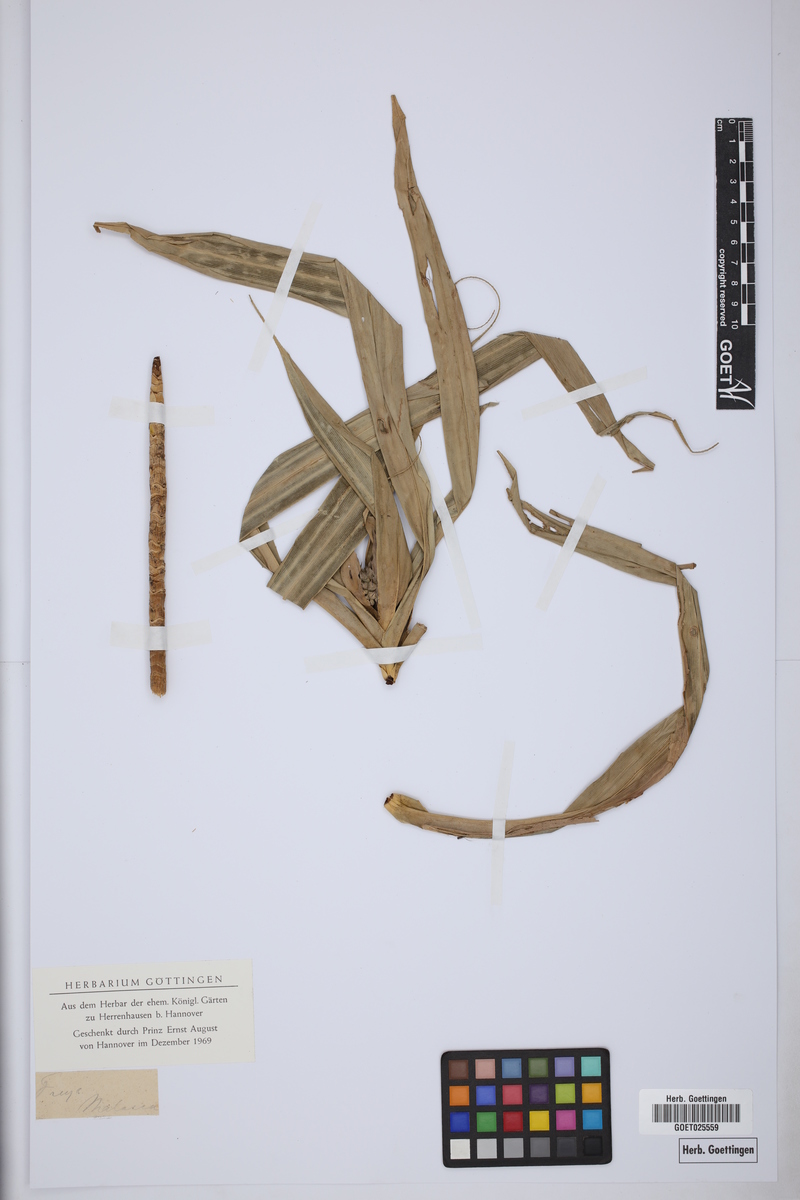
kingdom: Plantae
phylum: Tracheophyta
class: Liliopsida
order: Pandanales
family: Pandanaceae
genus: Freycinetia
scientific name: Freycinetia
